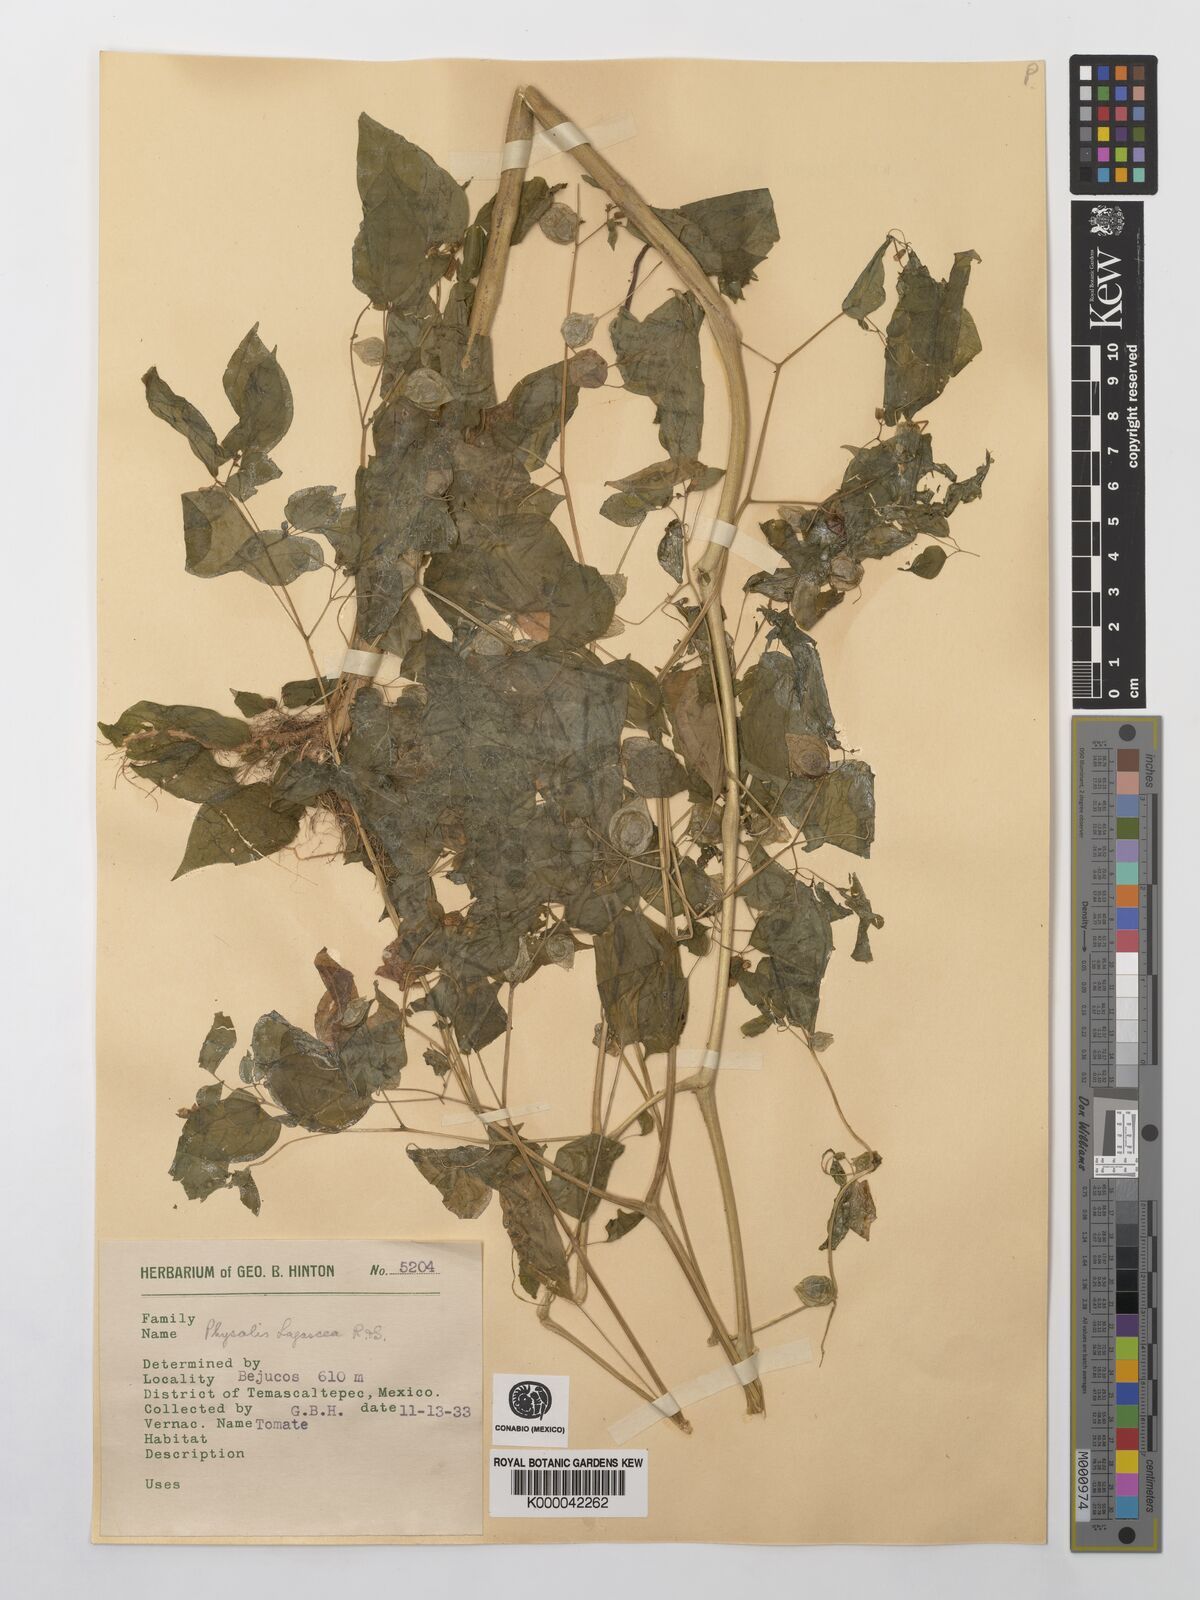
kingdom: Plantae
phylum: Tracheophyta
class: Magnoliopsida
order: Solanales
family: Solanaceae
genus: Physalis
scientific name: Physalis lagascae
